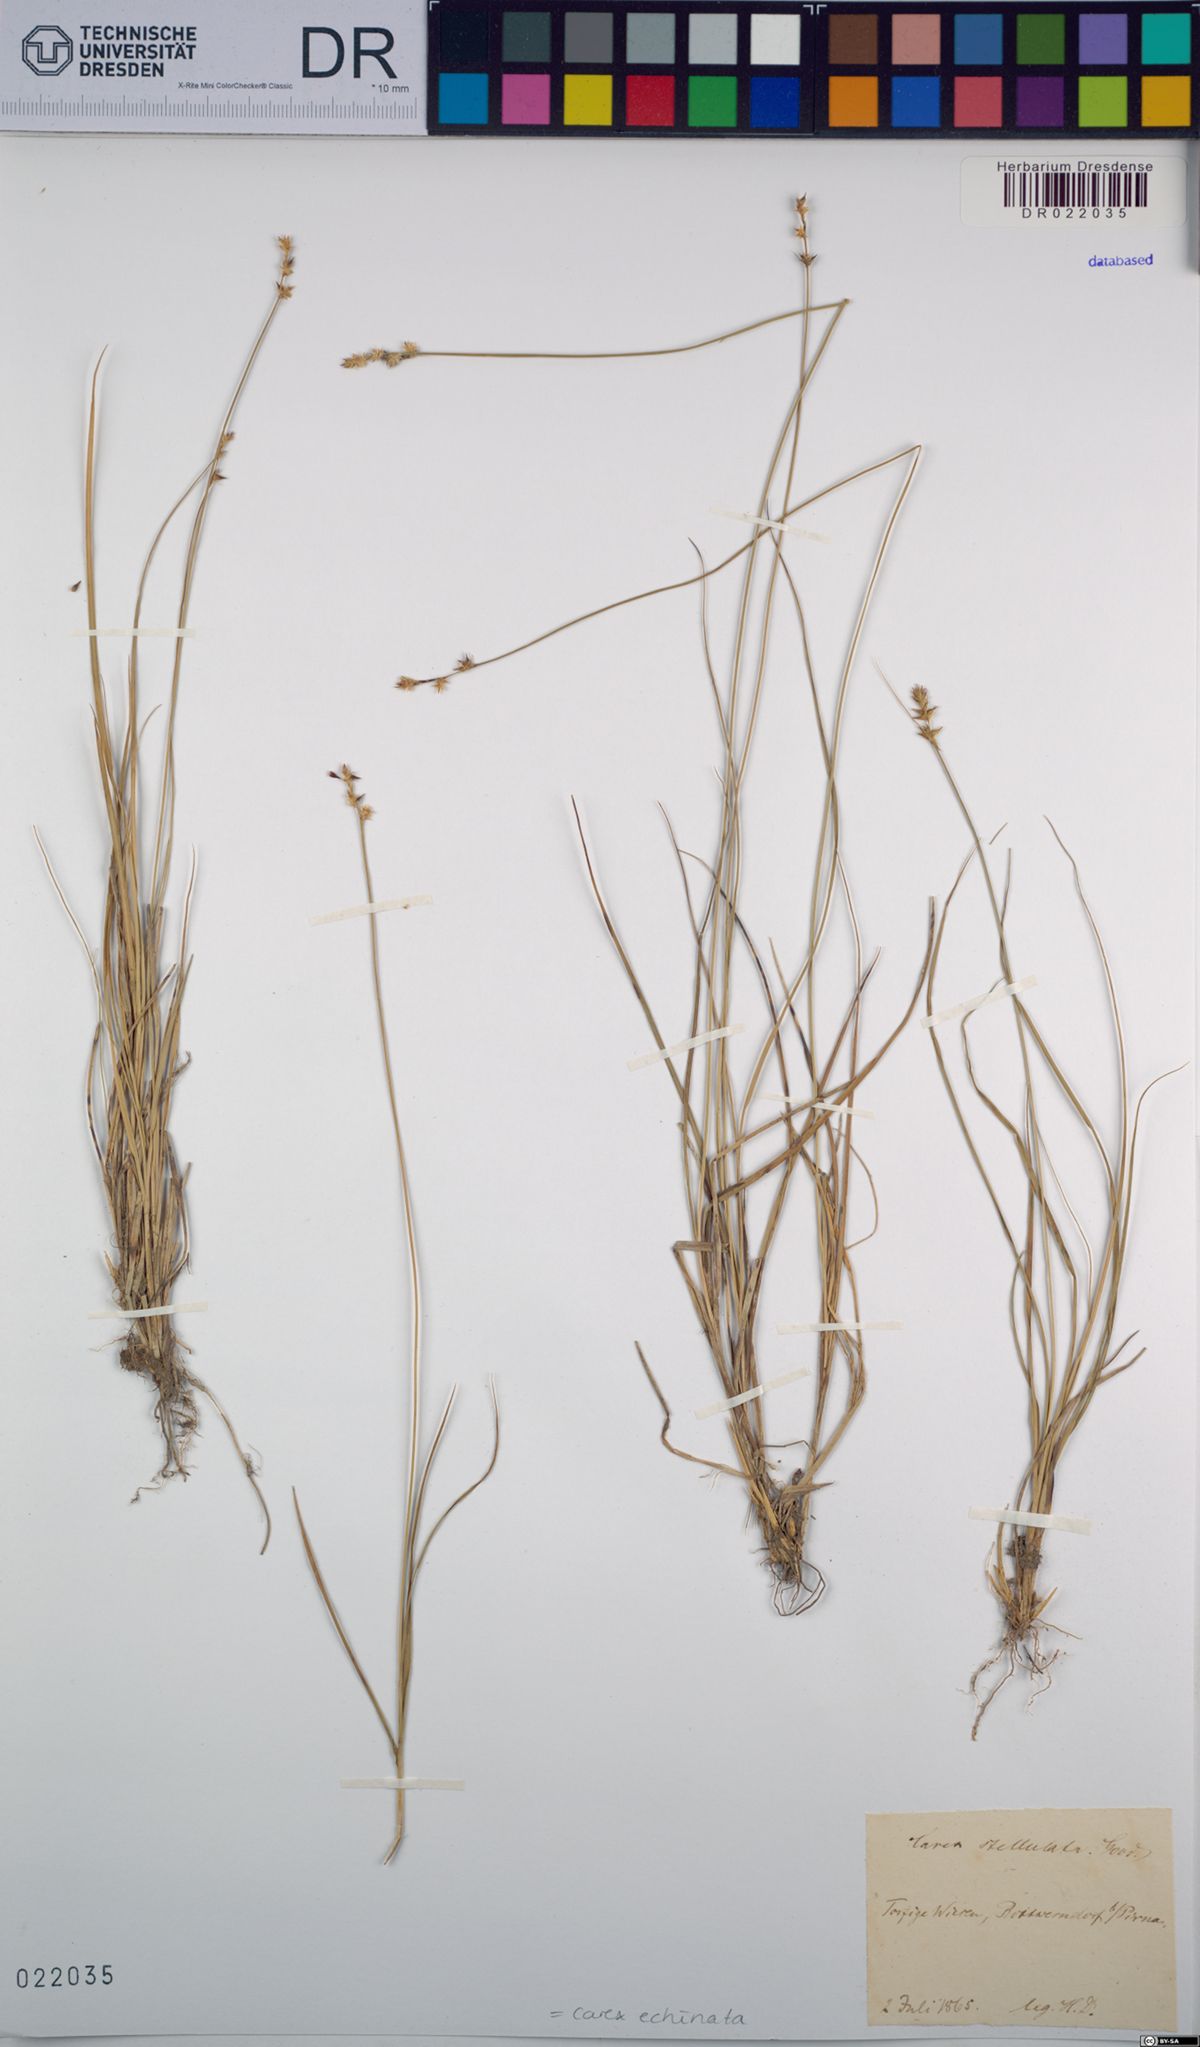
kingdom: Plantae
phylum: Tracheophyta
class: Liliopsida
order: Poales
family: Cyperaceae
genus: Carex
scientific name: Carex echinata
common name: Star sedge
